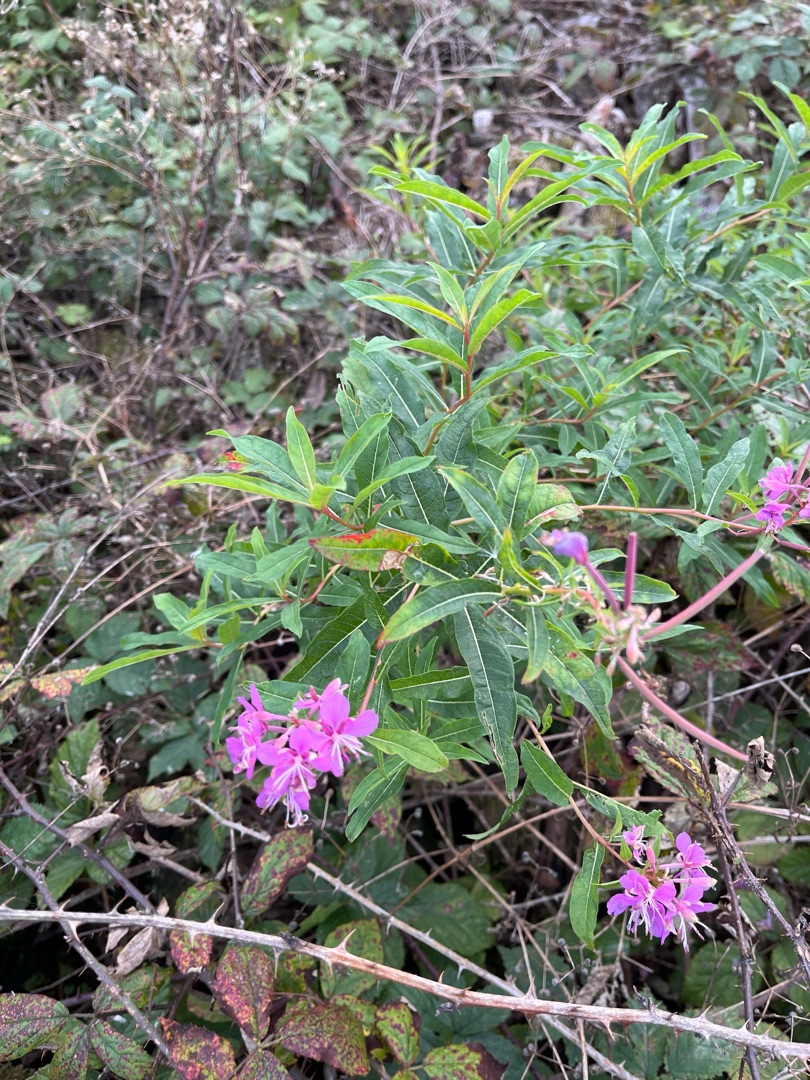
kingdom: Plantae
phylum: Tracheophyta
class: Magnoliopsida
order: Myrtales
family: Onagraceae
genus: Chamaenerion
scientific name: Chamaenerion angustifolium
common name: Gederams
